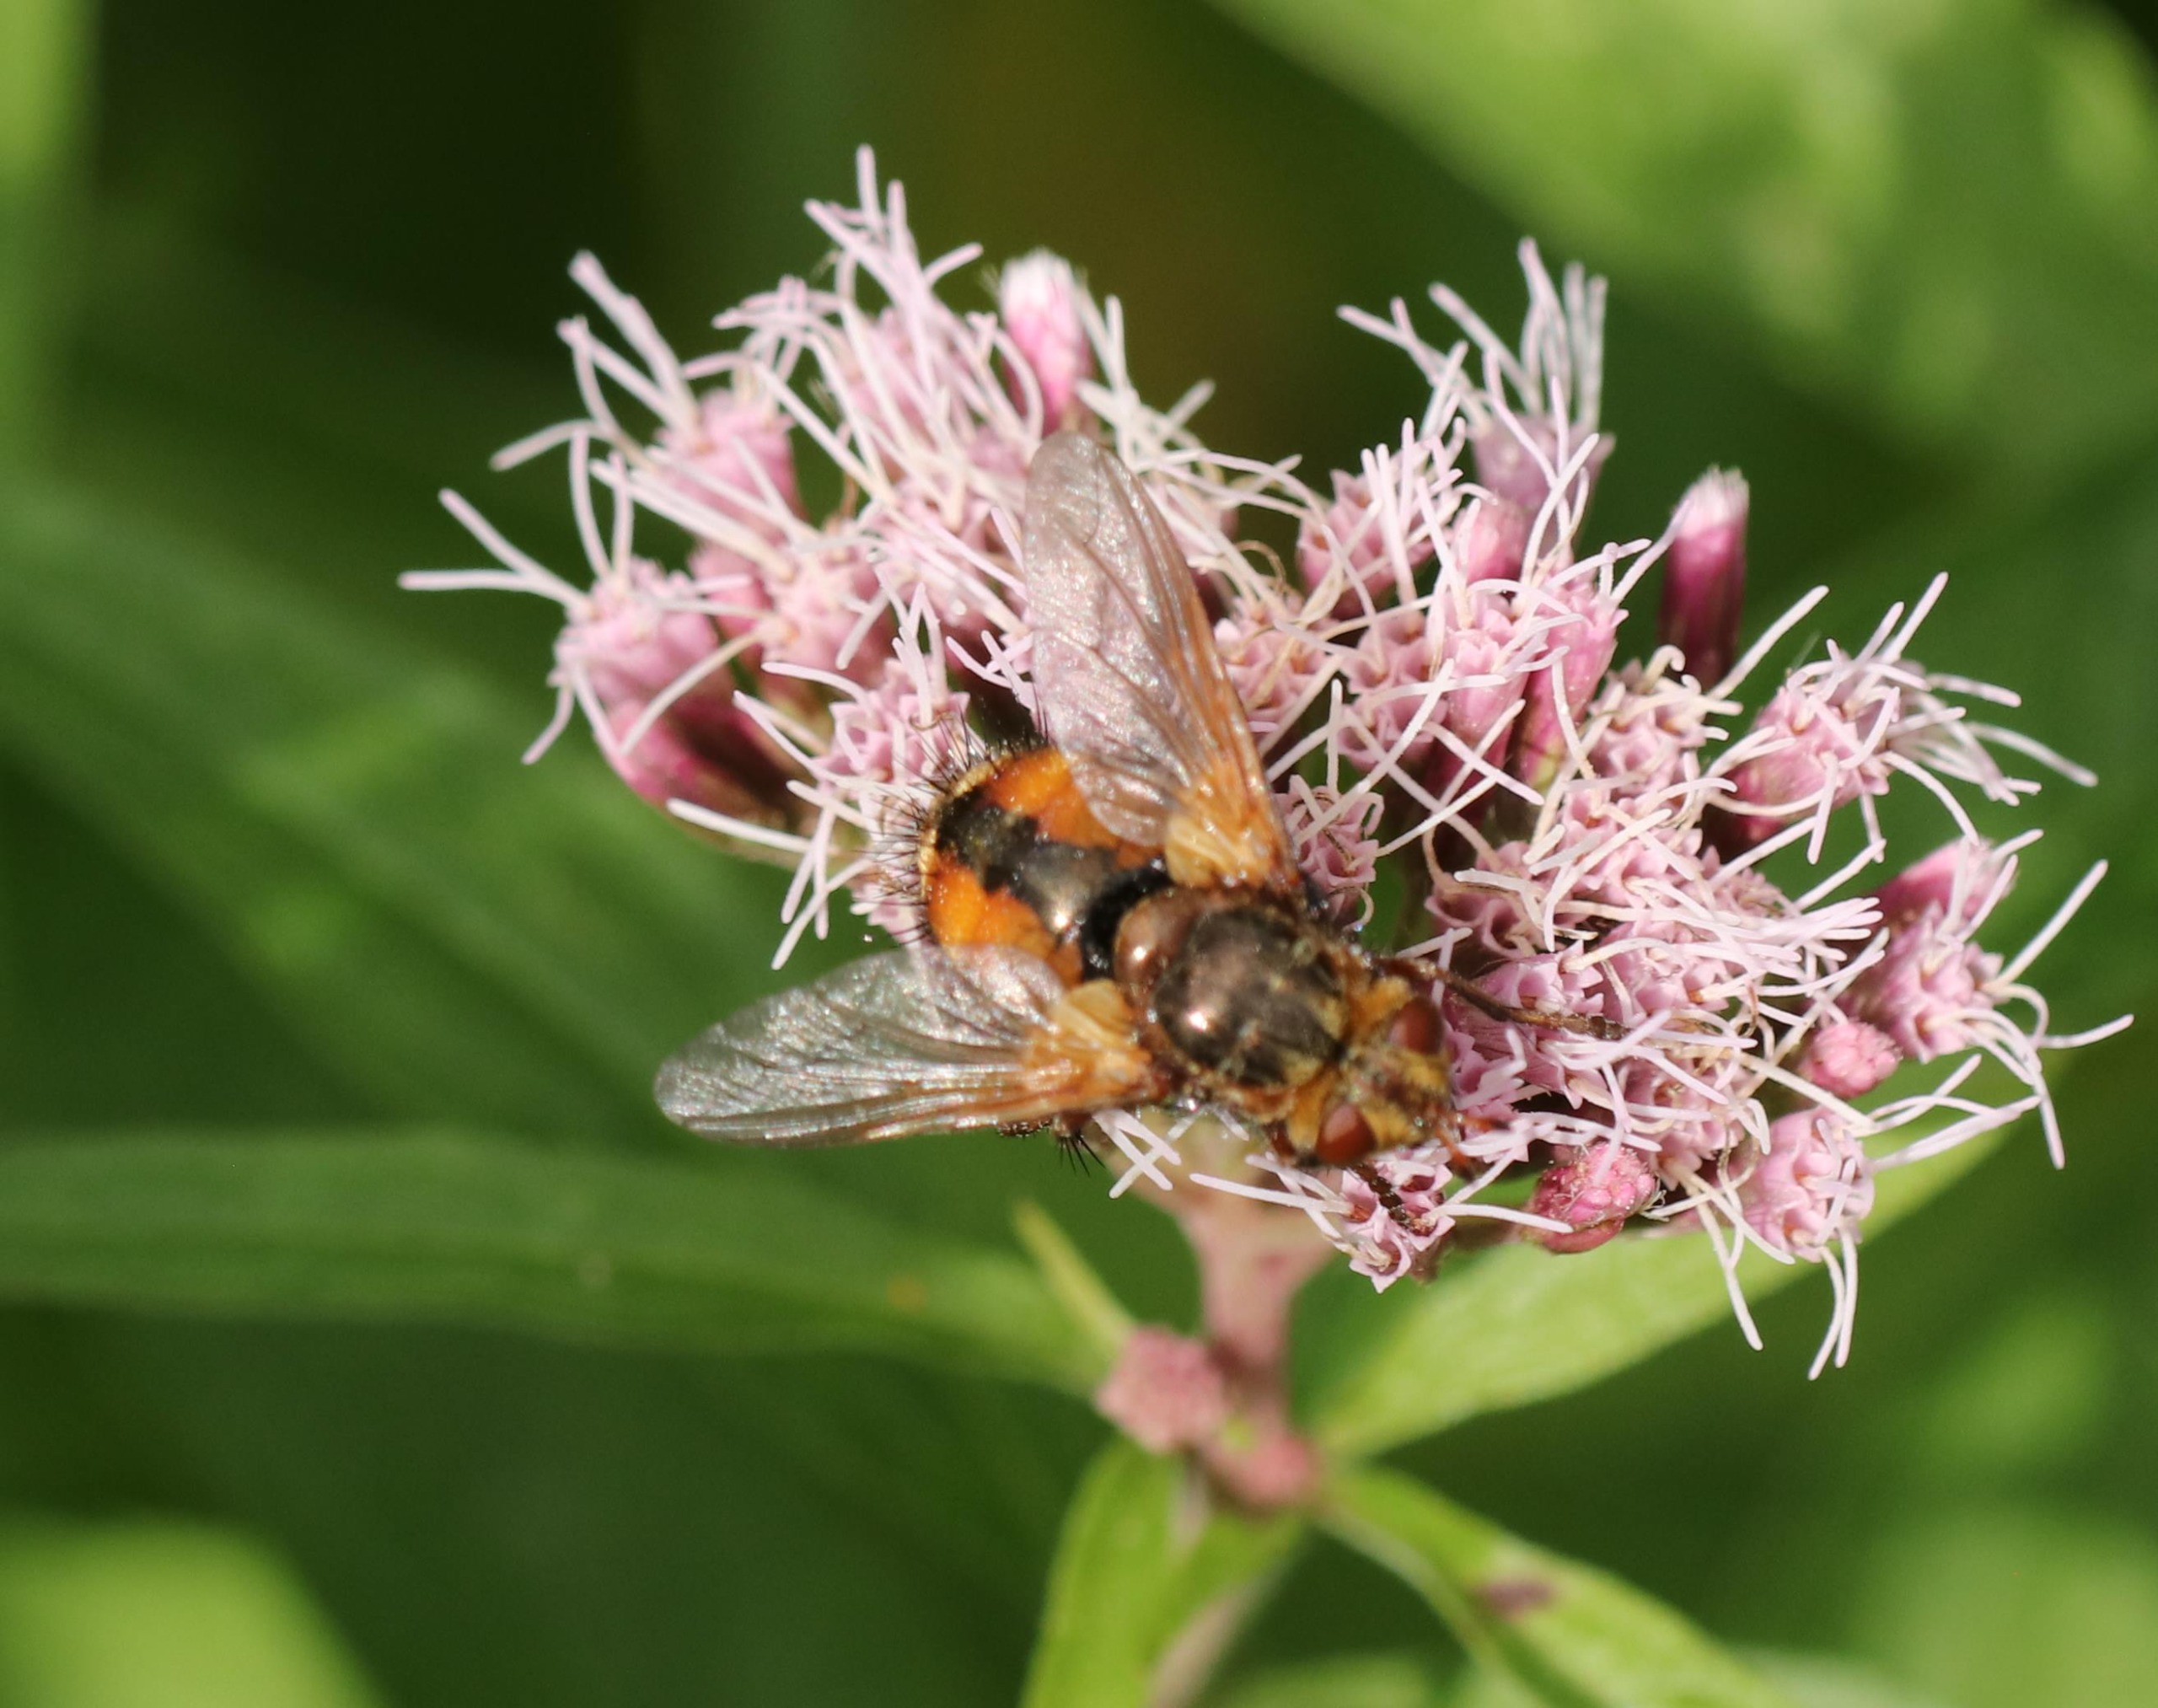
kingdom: Animalia
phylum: Arthropoda
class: Insecta
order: Diptera
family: Tachinidae
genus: Tachina
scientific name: Tachina fera
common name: Mellemfluen oskar
